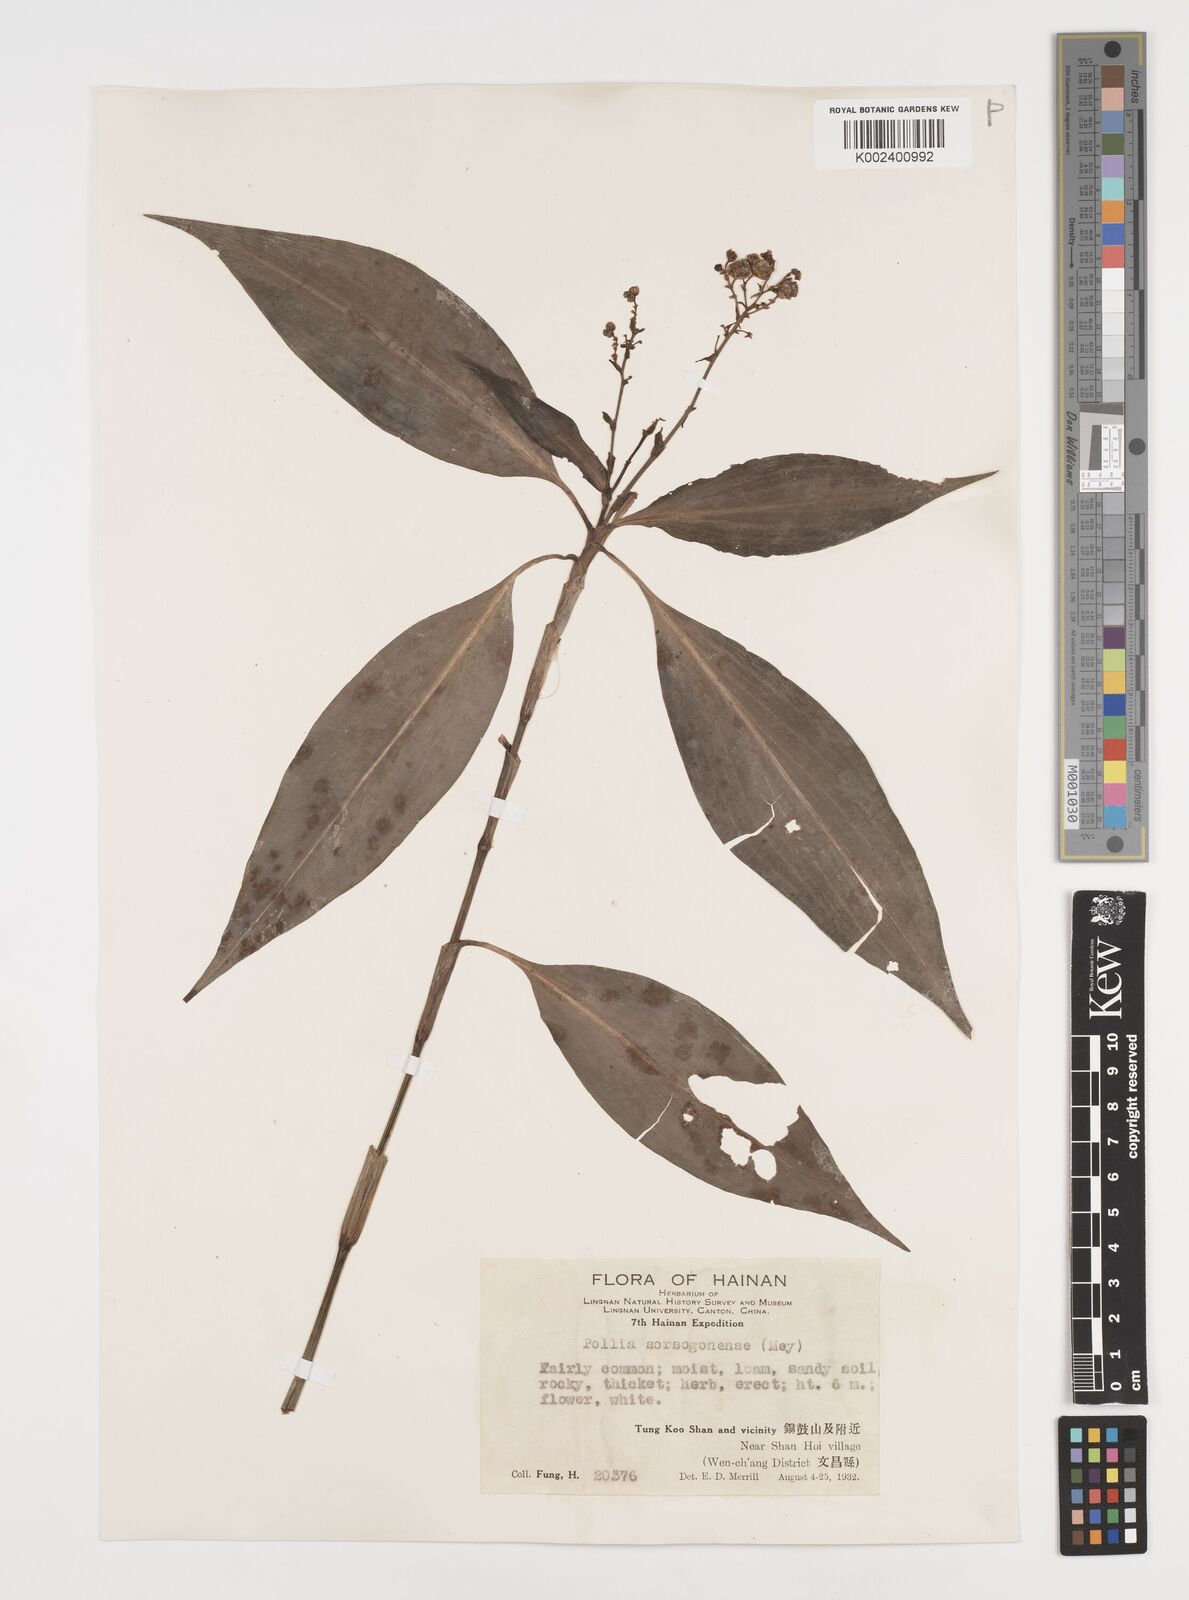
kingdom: Plantae
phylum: Tracheophyta
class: Liliopsida
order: Commelinales
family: Commelinaceae
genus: Pollia
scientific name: Pollia secundiflora
